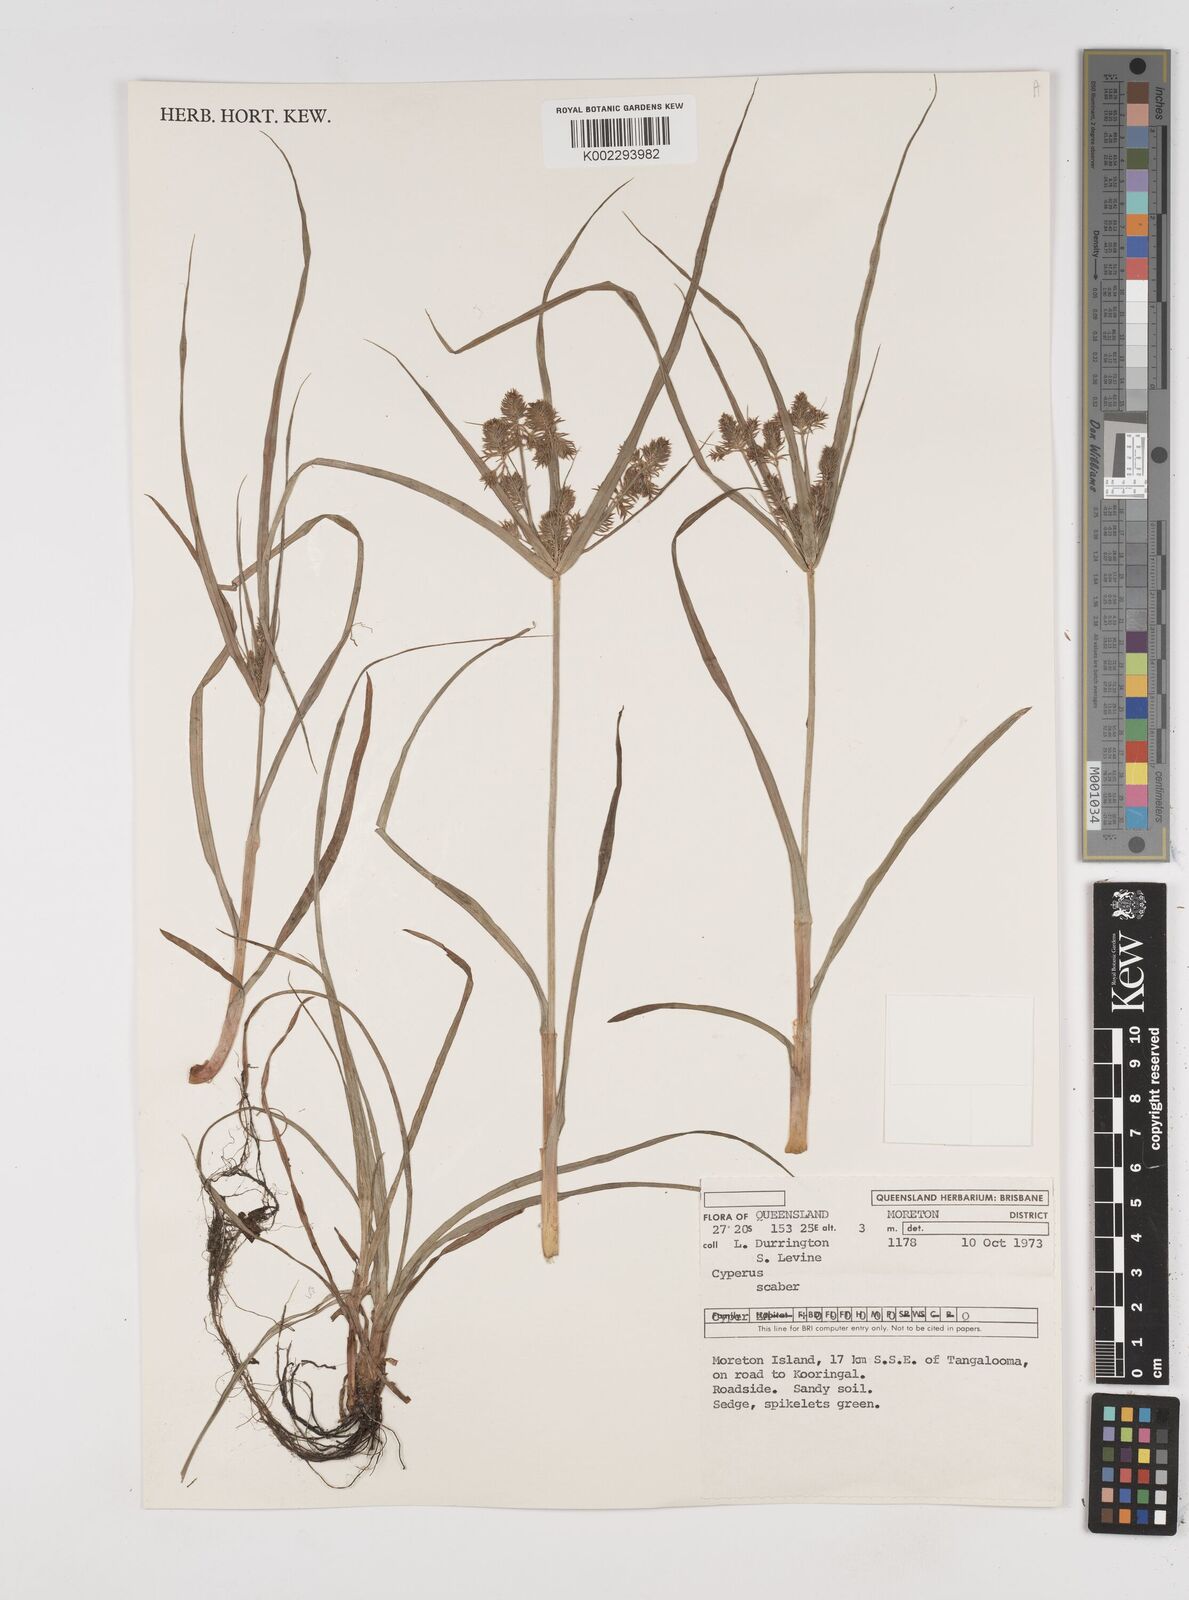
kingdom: Plantae
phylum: Tracheophyta
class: Liliopsida
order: Poales
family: Cyperaceae
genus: Cyperus
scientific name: Cyperus scaber
